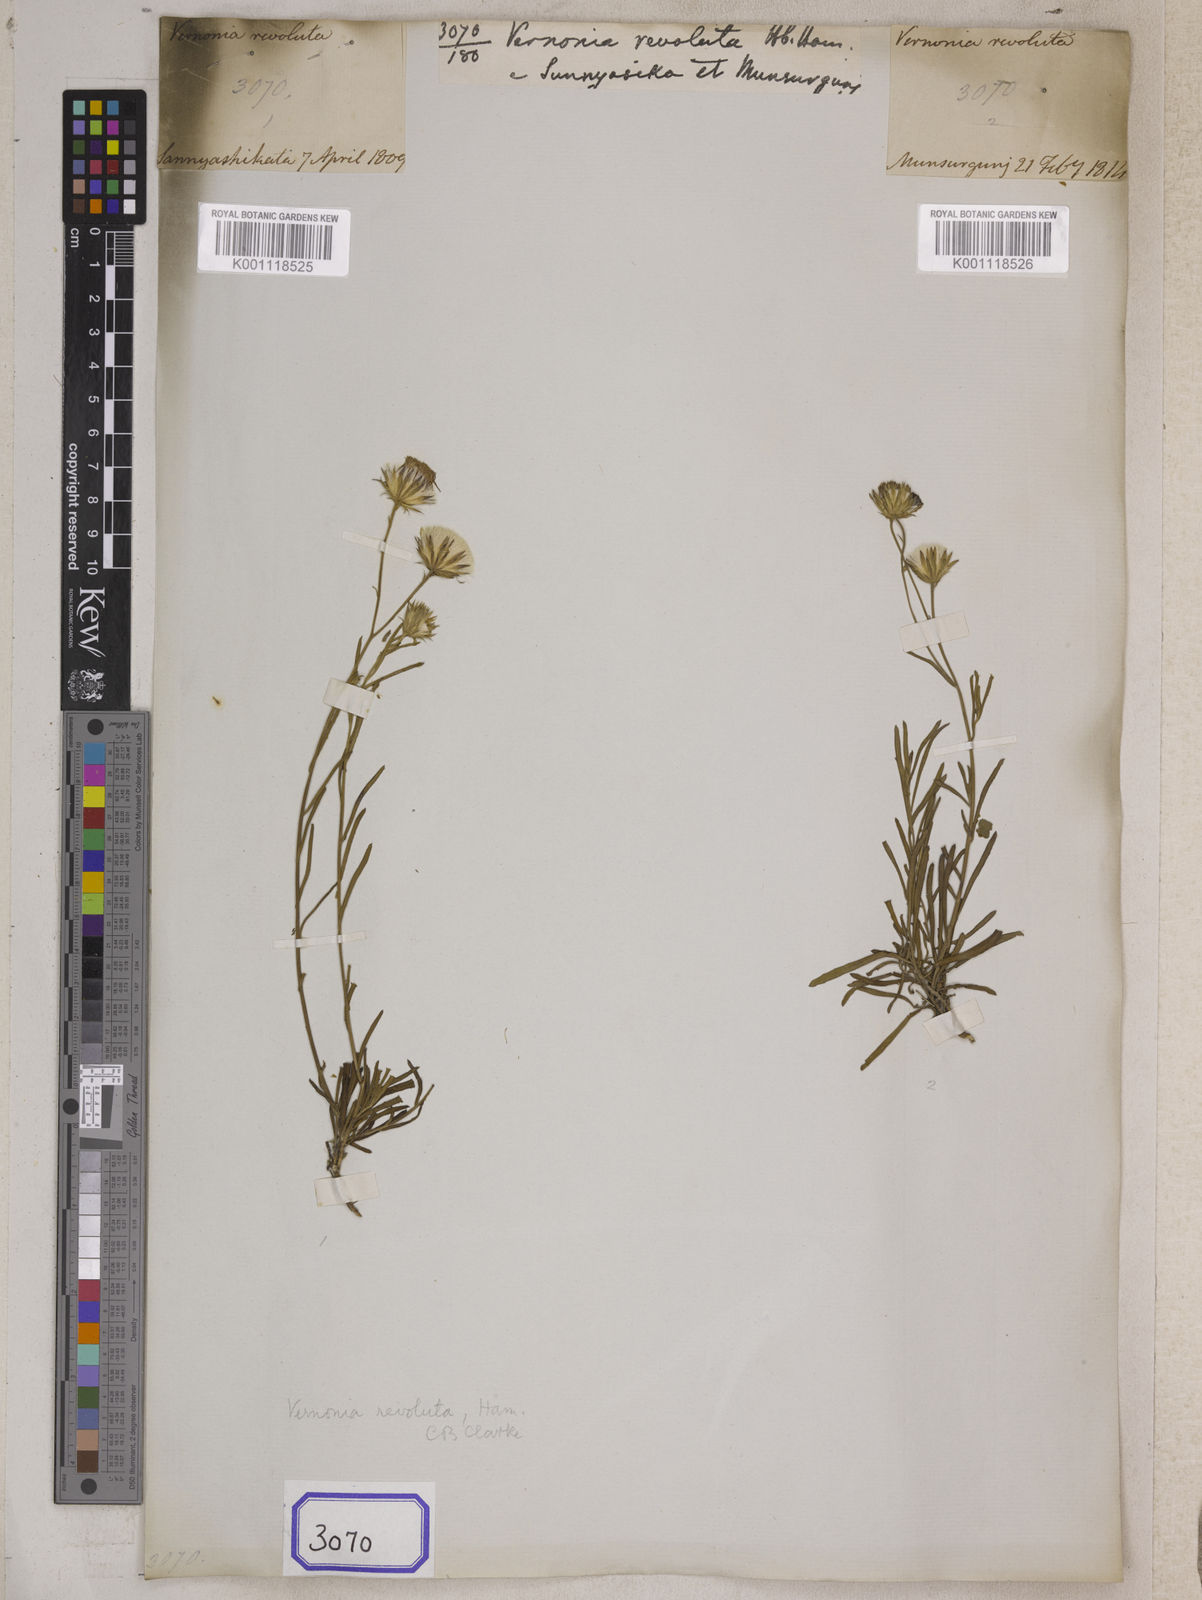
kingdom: Plantae
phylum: Tracheophyta
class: Magnoliopsida
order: Asterales
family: Asteraceae
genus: Vernonia
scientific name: Vernonia revoluta
